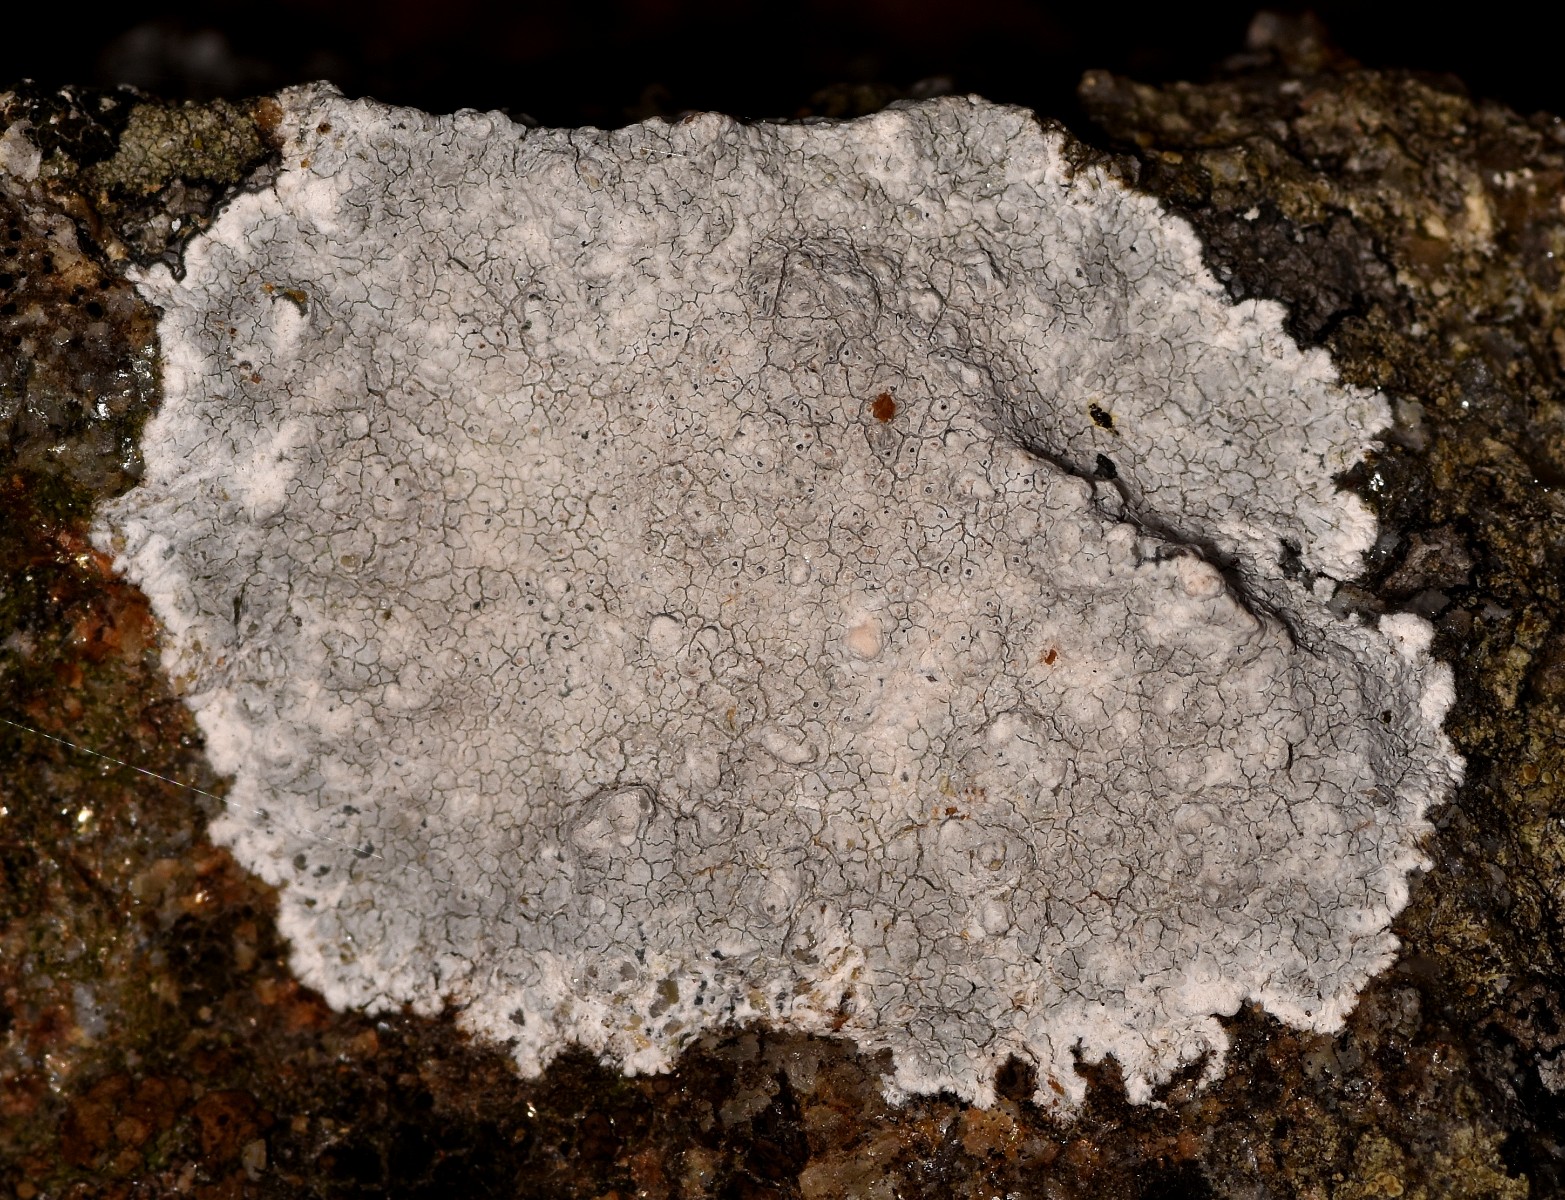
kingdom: Fungi
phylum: Ascomycota
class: Lecanoromycetes
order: Lecanorales
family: Lecanoraceae
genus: Glaucomaria
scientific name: Glaucomaria rupicola
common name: stengærde-kantskivelav
